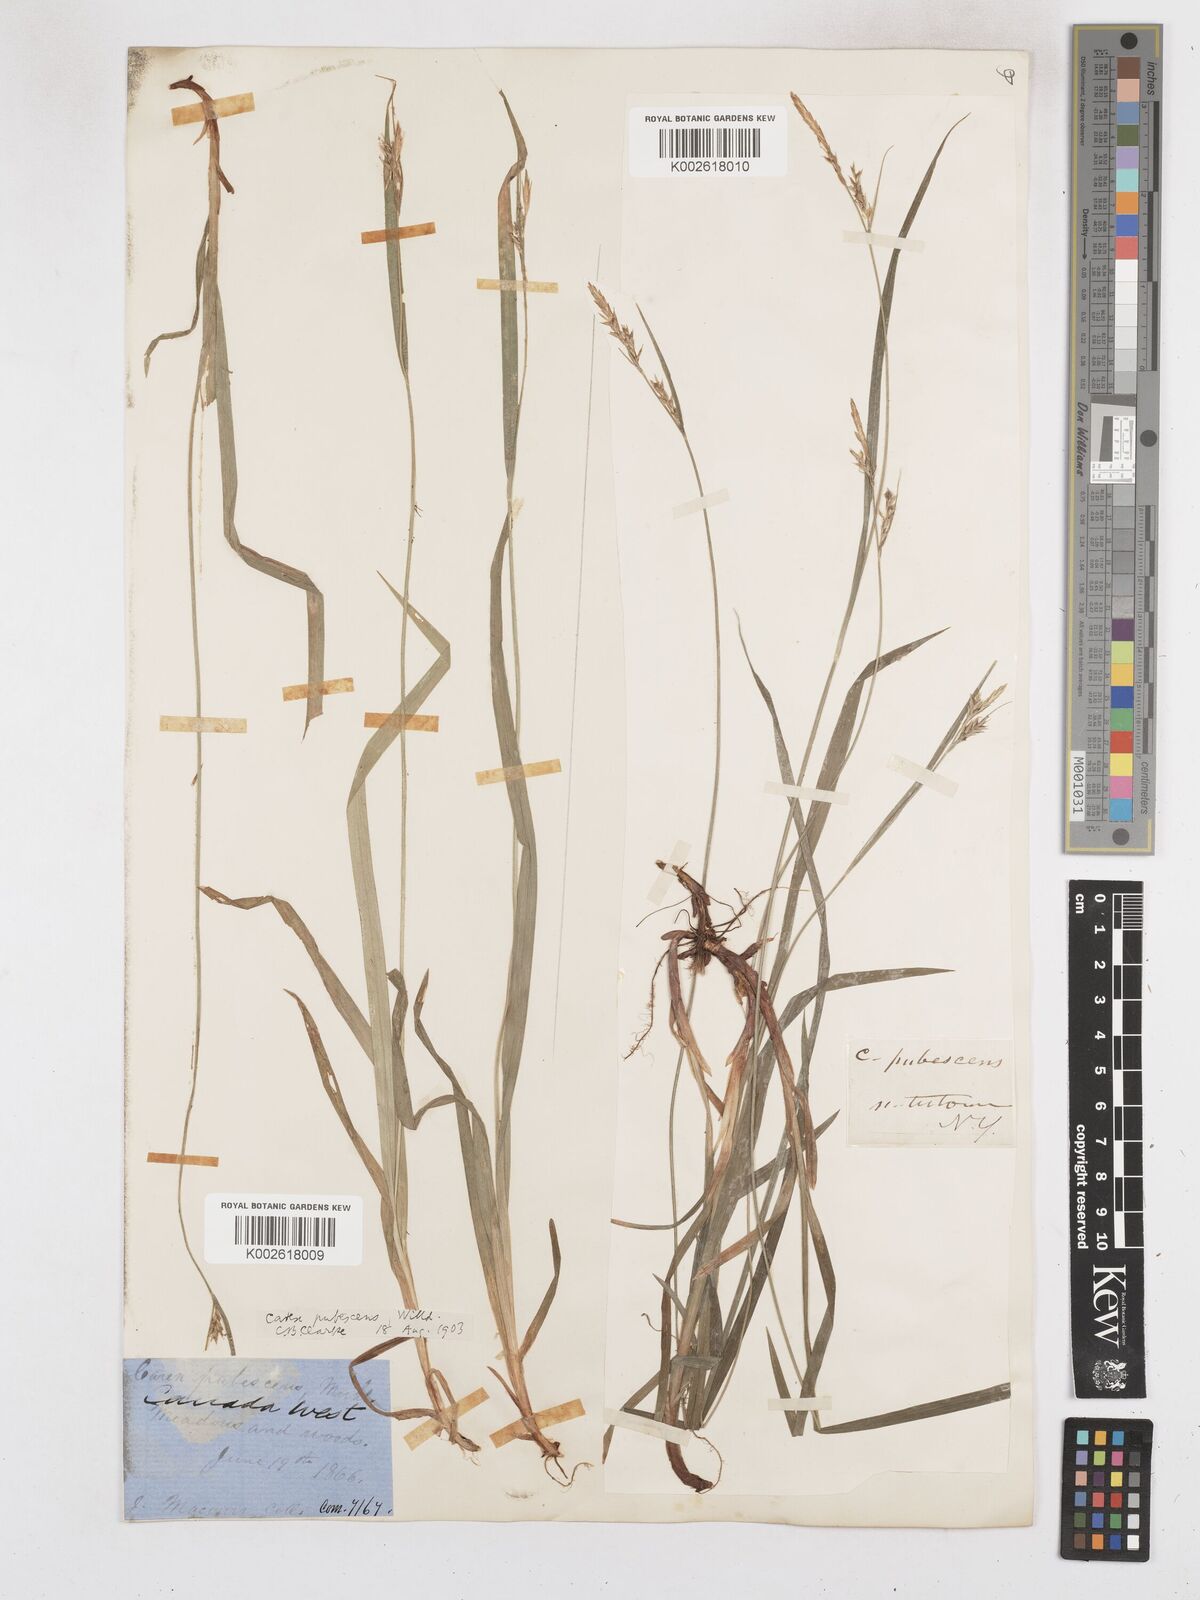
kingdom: Plantae
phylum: Tracheophyta
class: Liliopsida
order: Poales
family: Cyperaceae
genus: Carex
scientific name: Carex hirtifolia
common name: Hairy sedge
